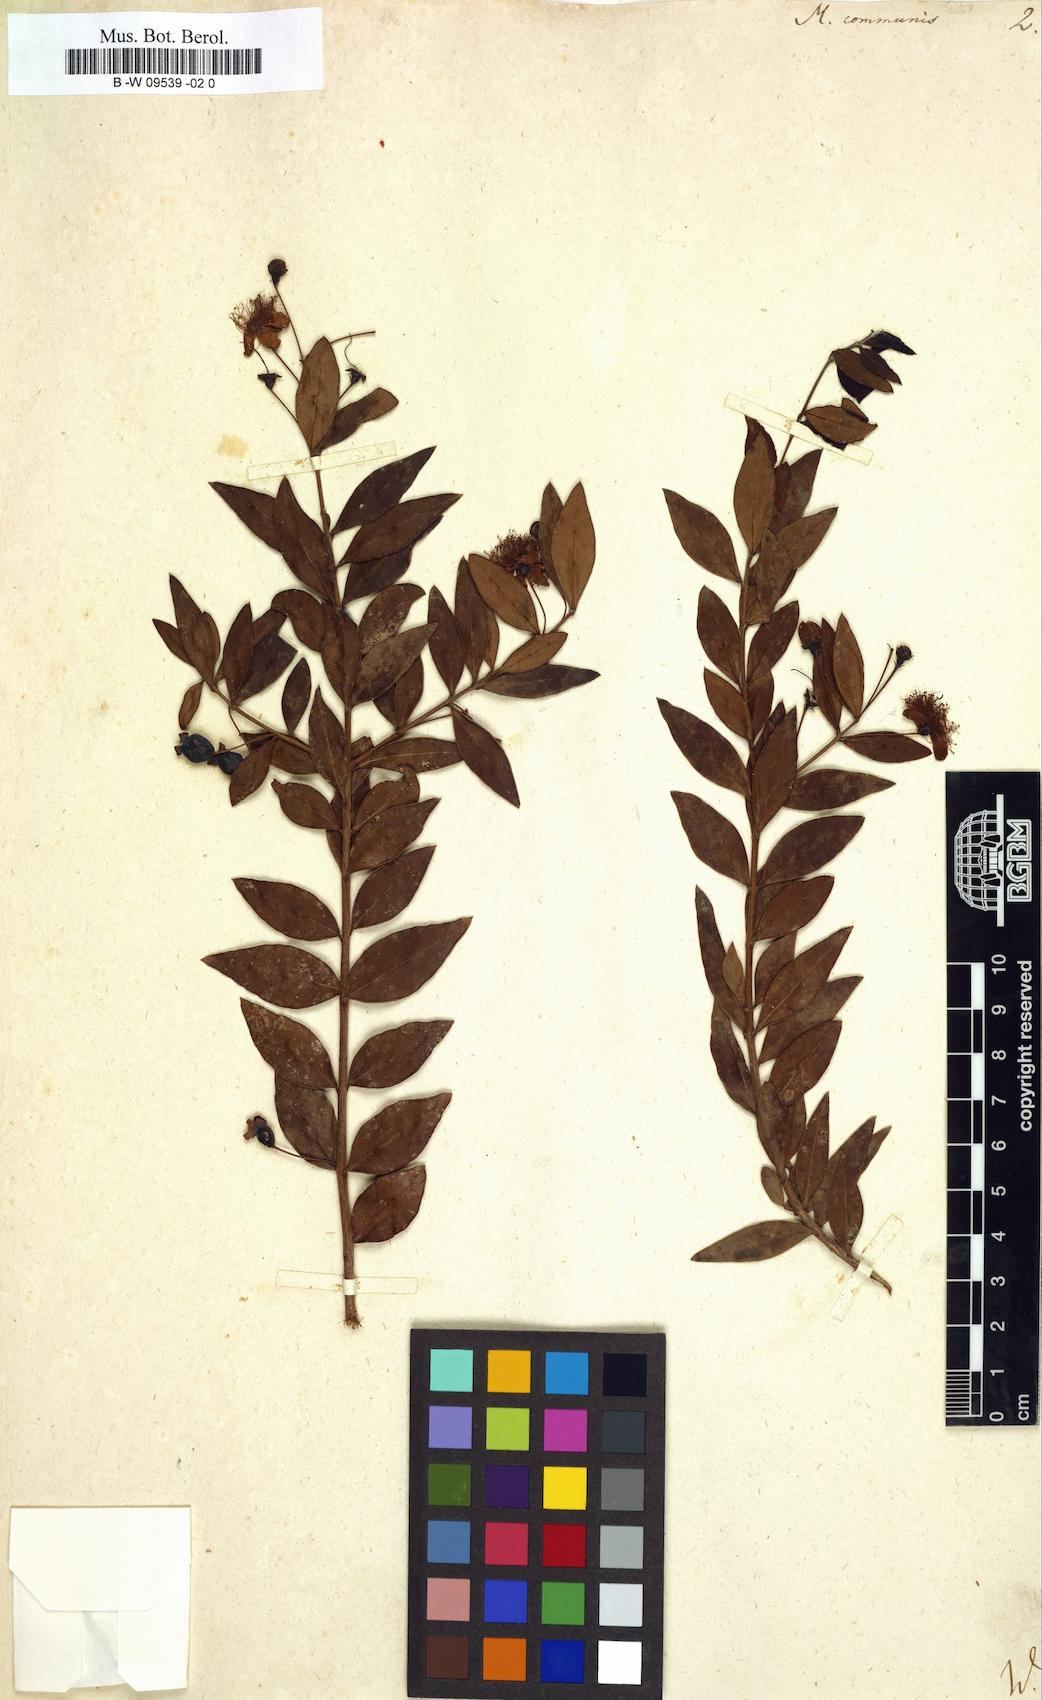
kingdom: Plantae
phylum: Tracheophyta
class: Magnoliopsida
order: Myrtales
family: Myrtaceae
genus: Myrtus
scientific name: Myrtus communis
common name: Myrtle
